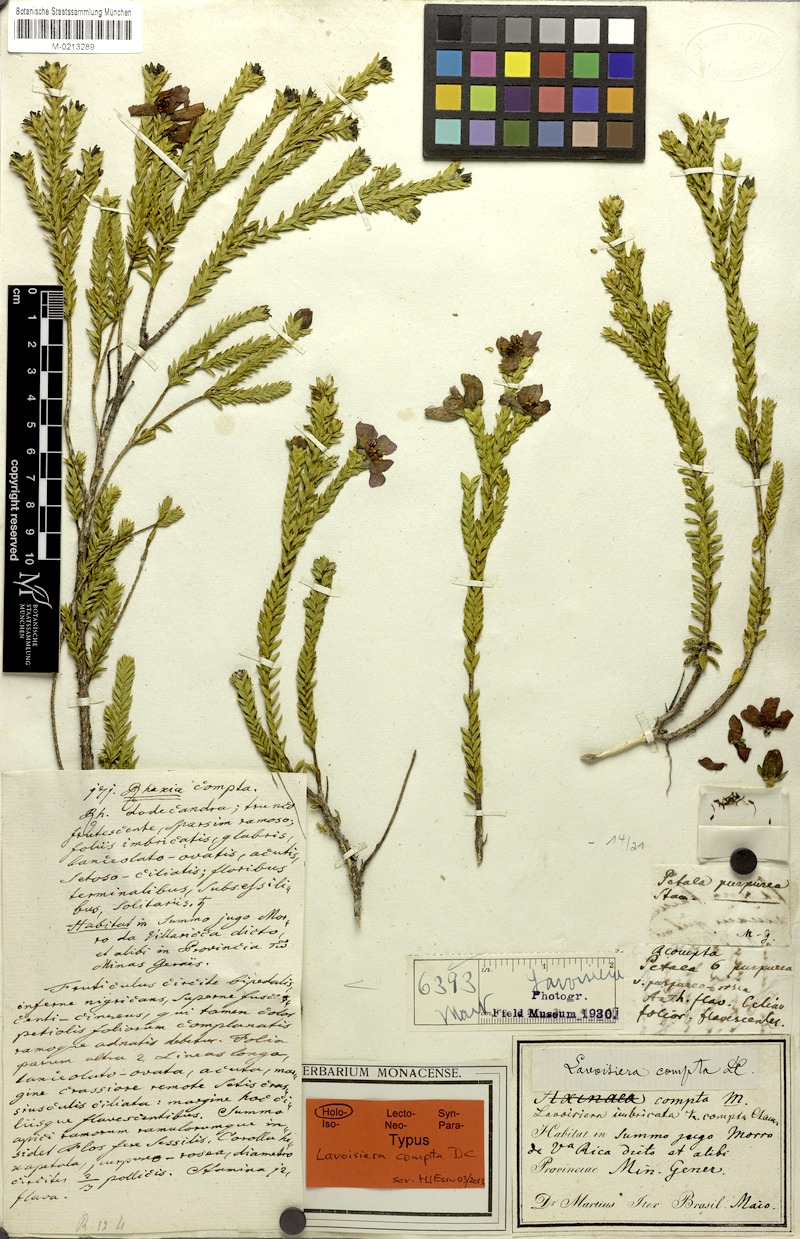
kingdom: Plantae
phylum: Tracheophyta
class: Magnoliopsida
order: Myrtales
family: Melastomataceae
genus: Microlicia
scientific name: Microlicia cataphracta
